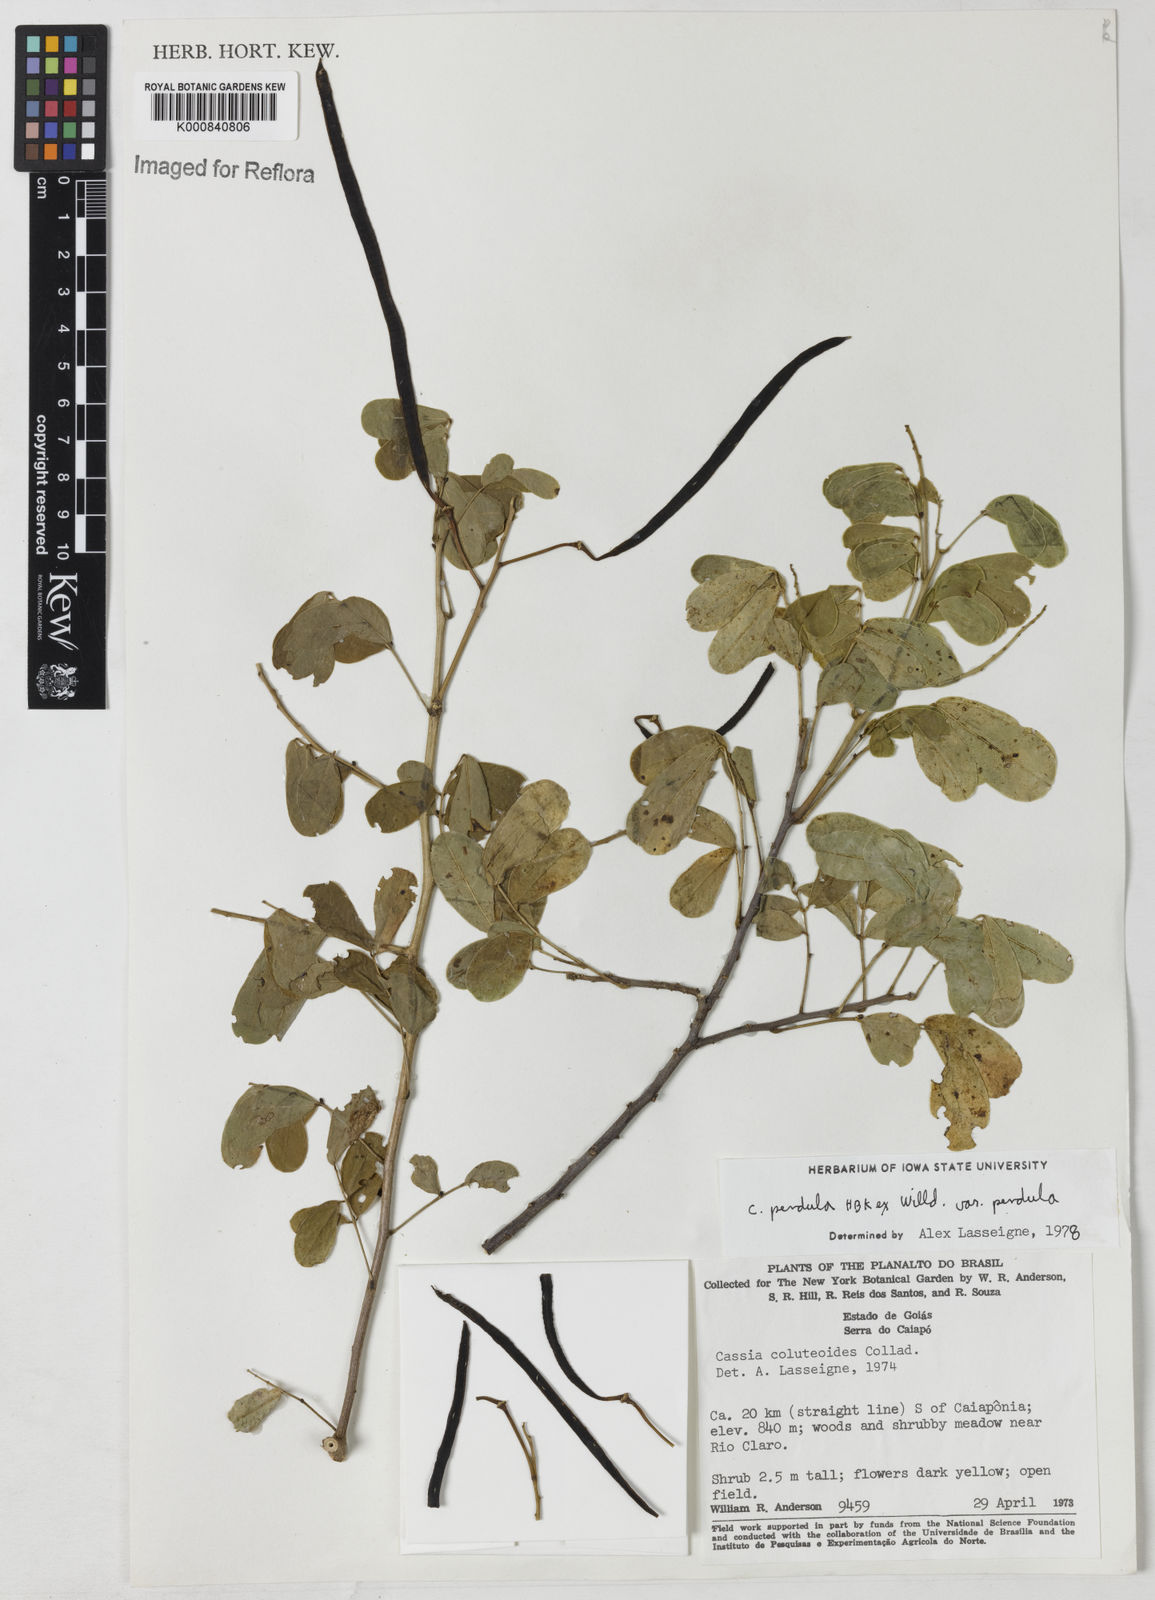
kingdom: Plantae
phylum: Tracheophyta
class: Magnoliopsida
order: Fabales
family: Fabaceae
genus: Senna
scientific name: Senna pendula
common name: Easter cassia
